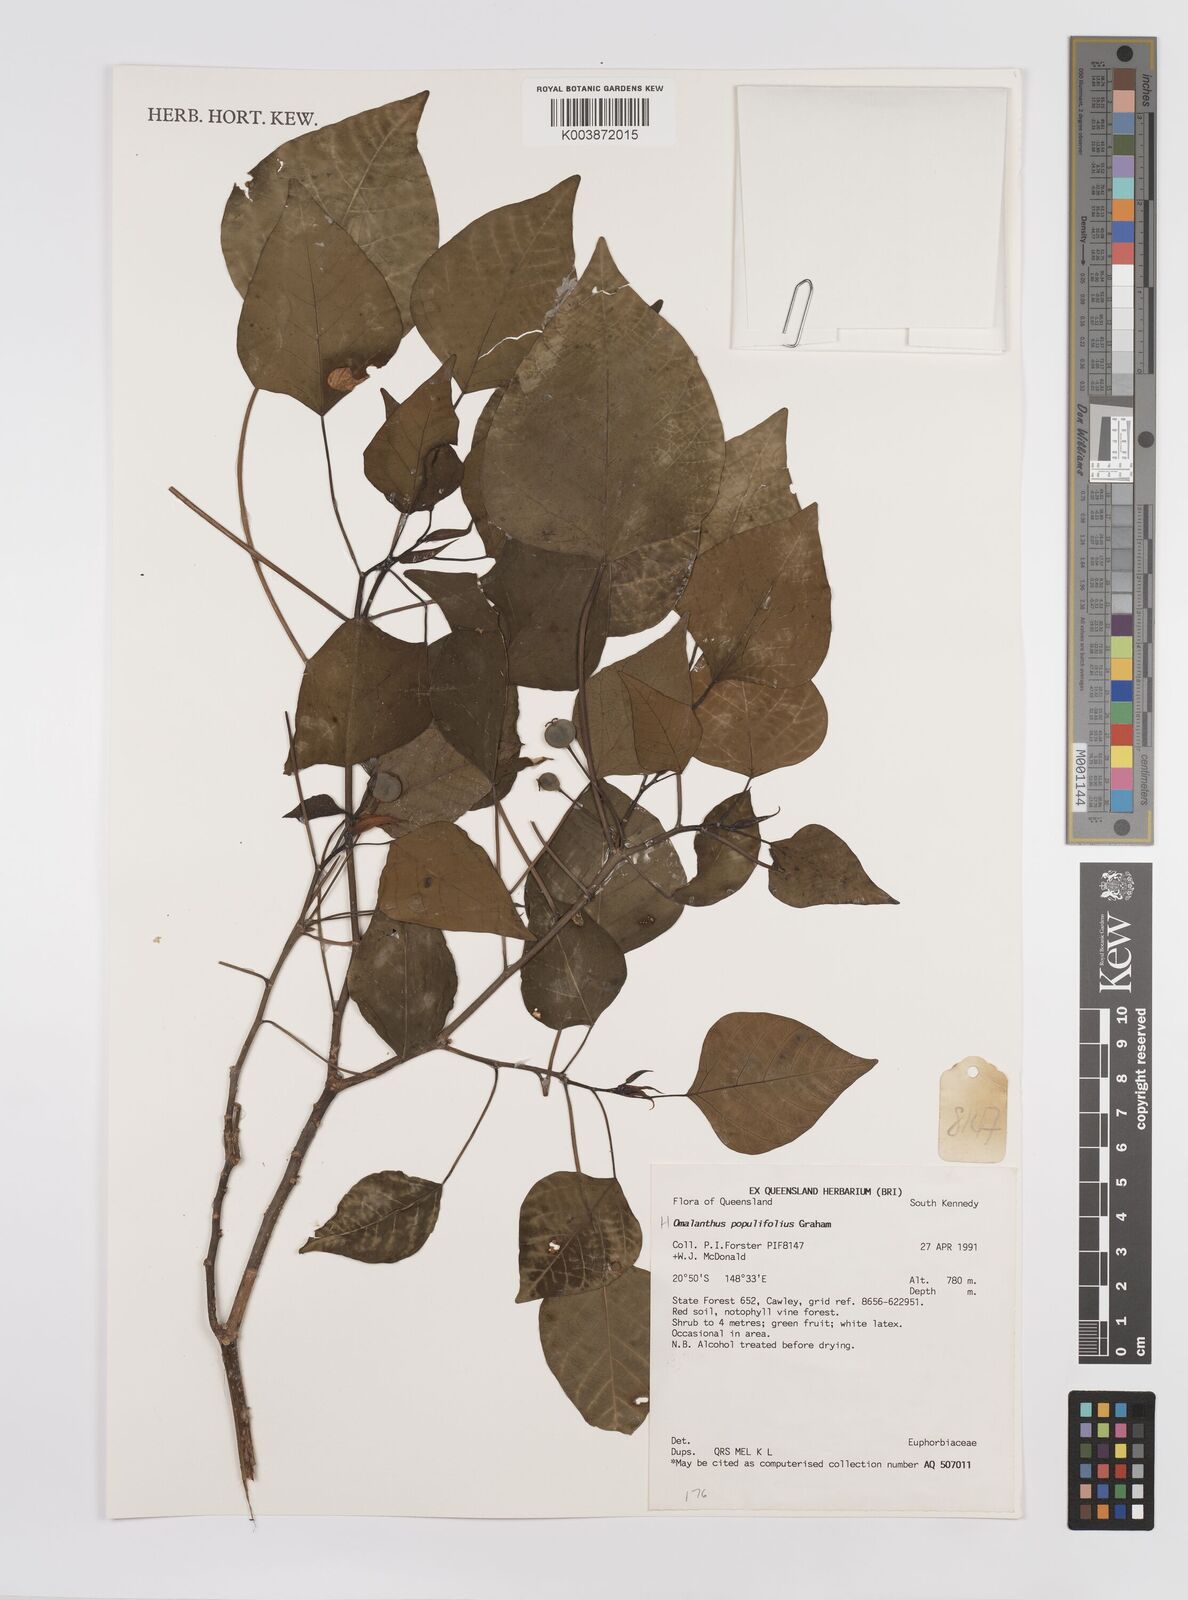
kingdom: Plantae
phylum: Tracheophyta
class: Magnoliopsida
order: Malpighiales
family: Euphorbiaceae
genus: Homalanthus
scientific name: Homalanthus populifolius
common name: Queensland poplar
